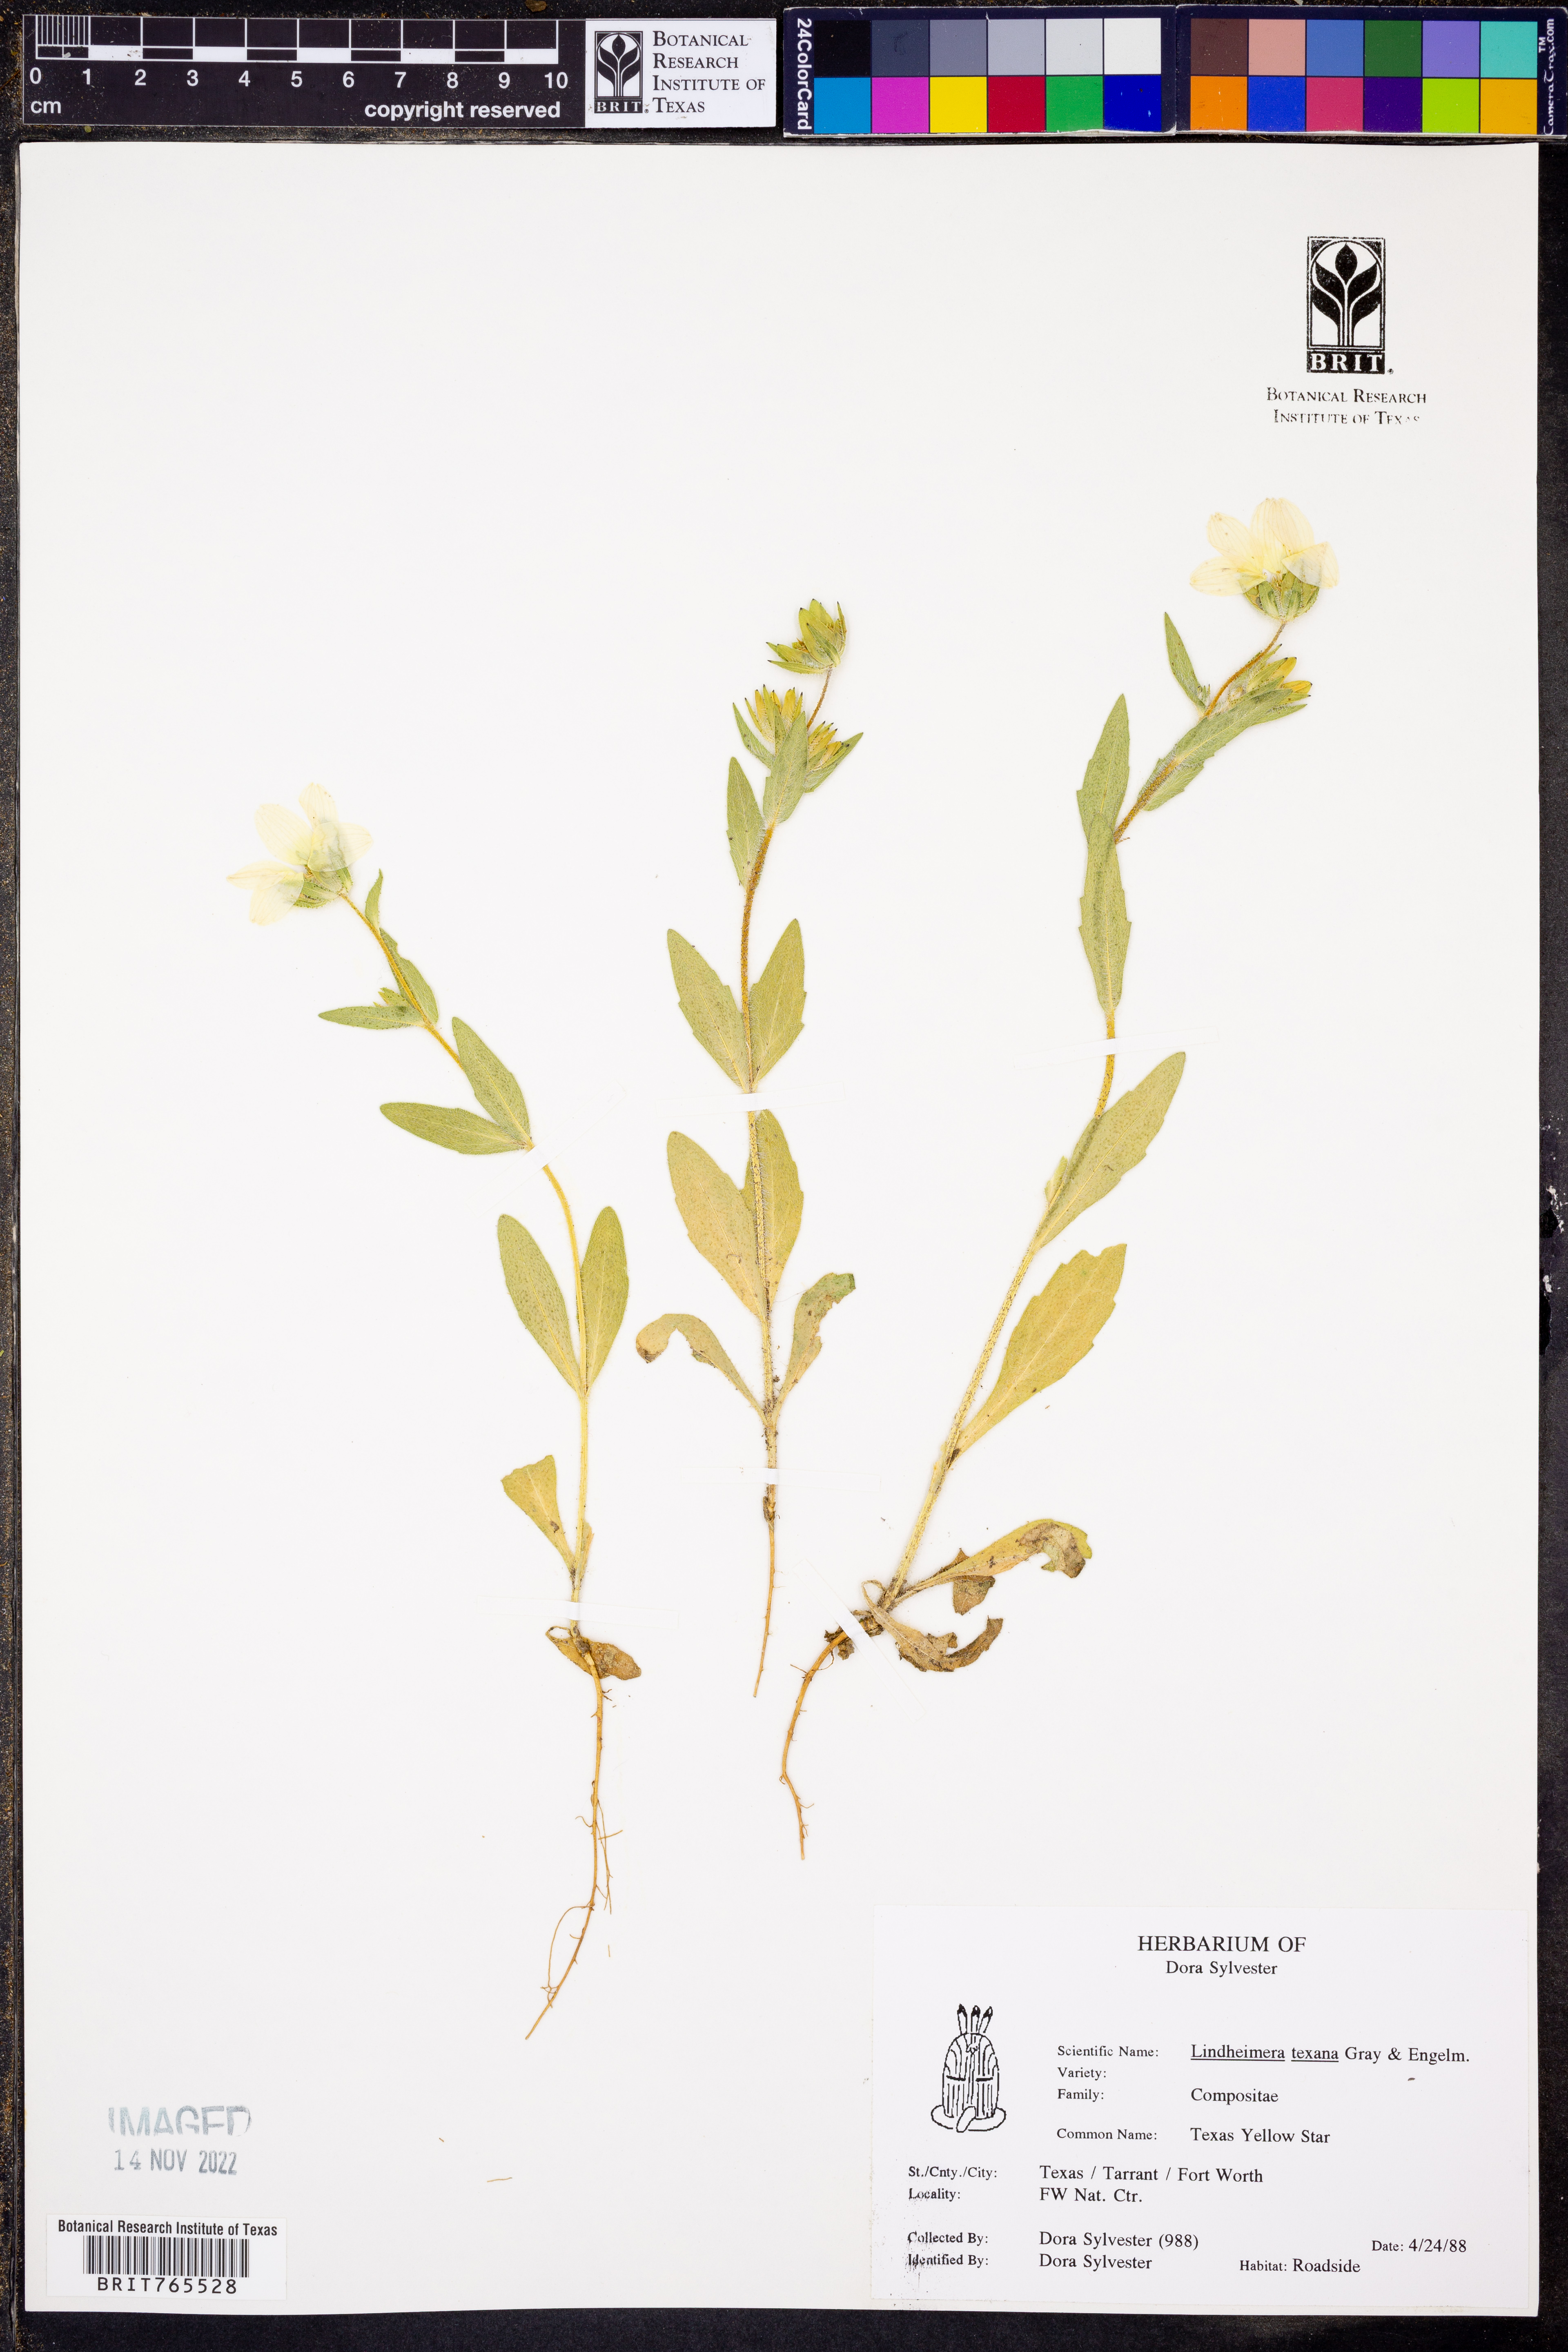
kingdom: Plantae
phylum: Tracheophyta
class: Magnoliopsida
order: Asterales
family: Asteraceae
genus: Lindheimera
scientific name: Lindheimera texana
